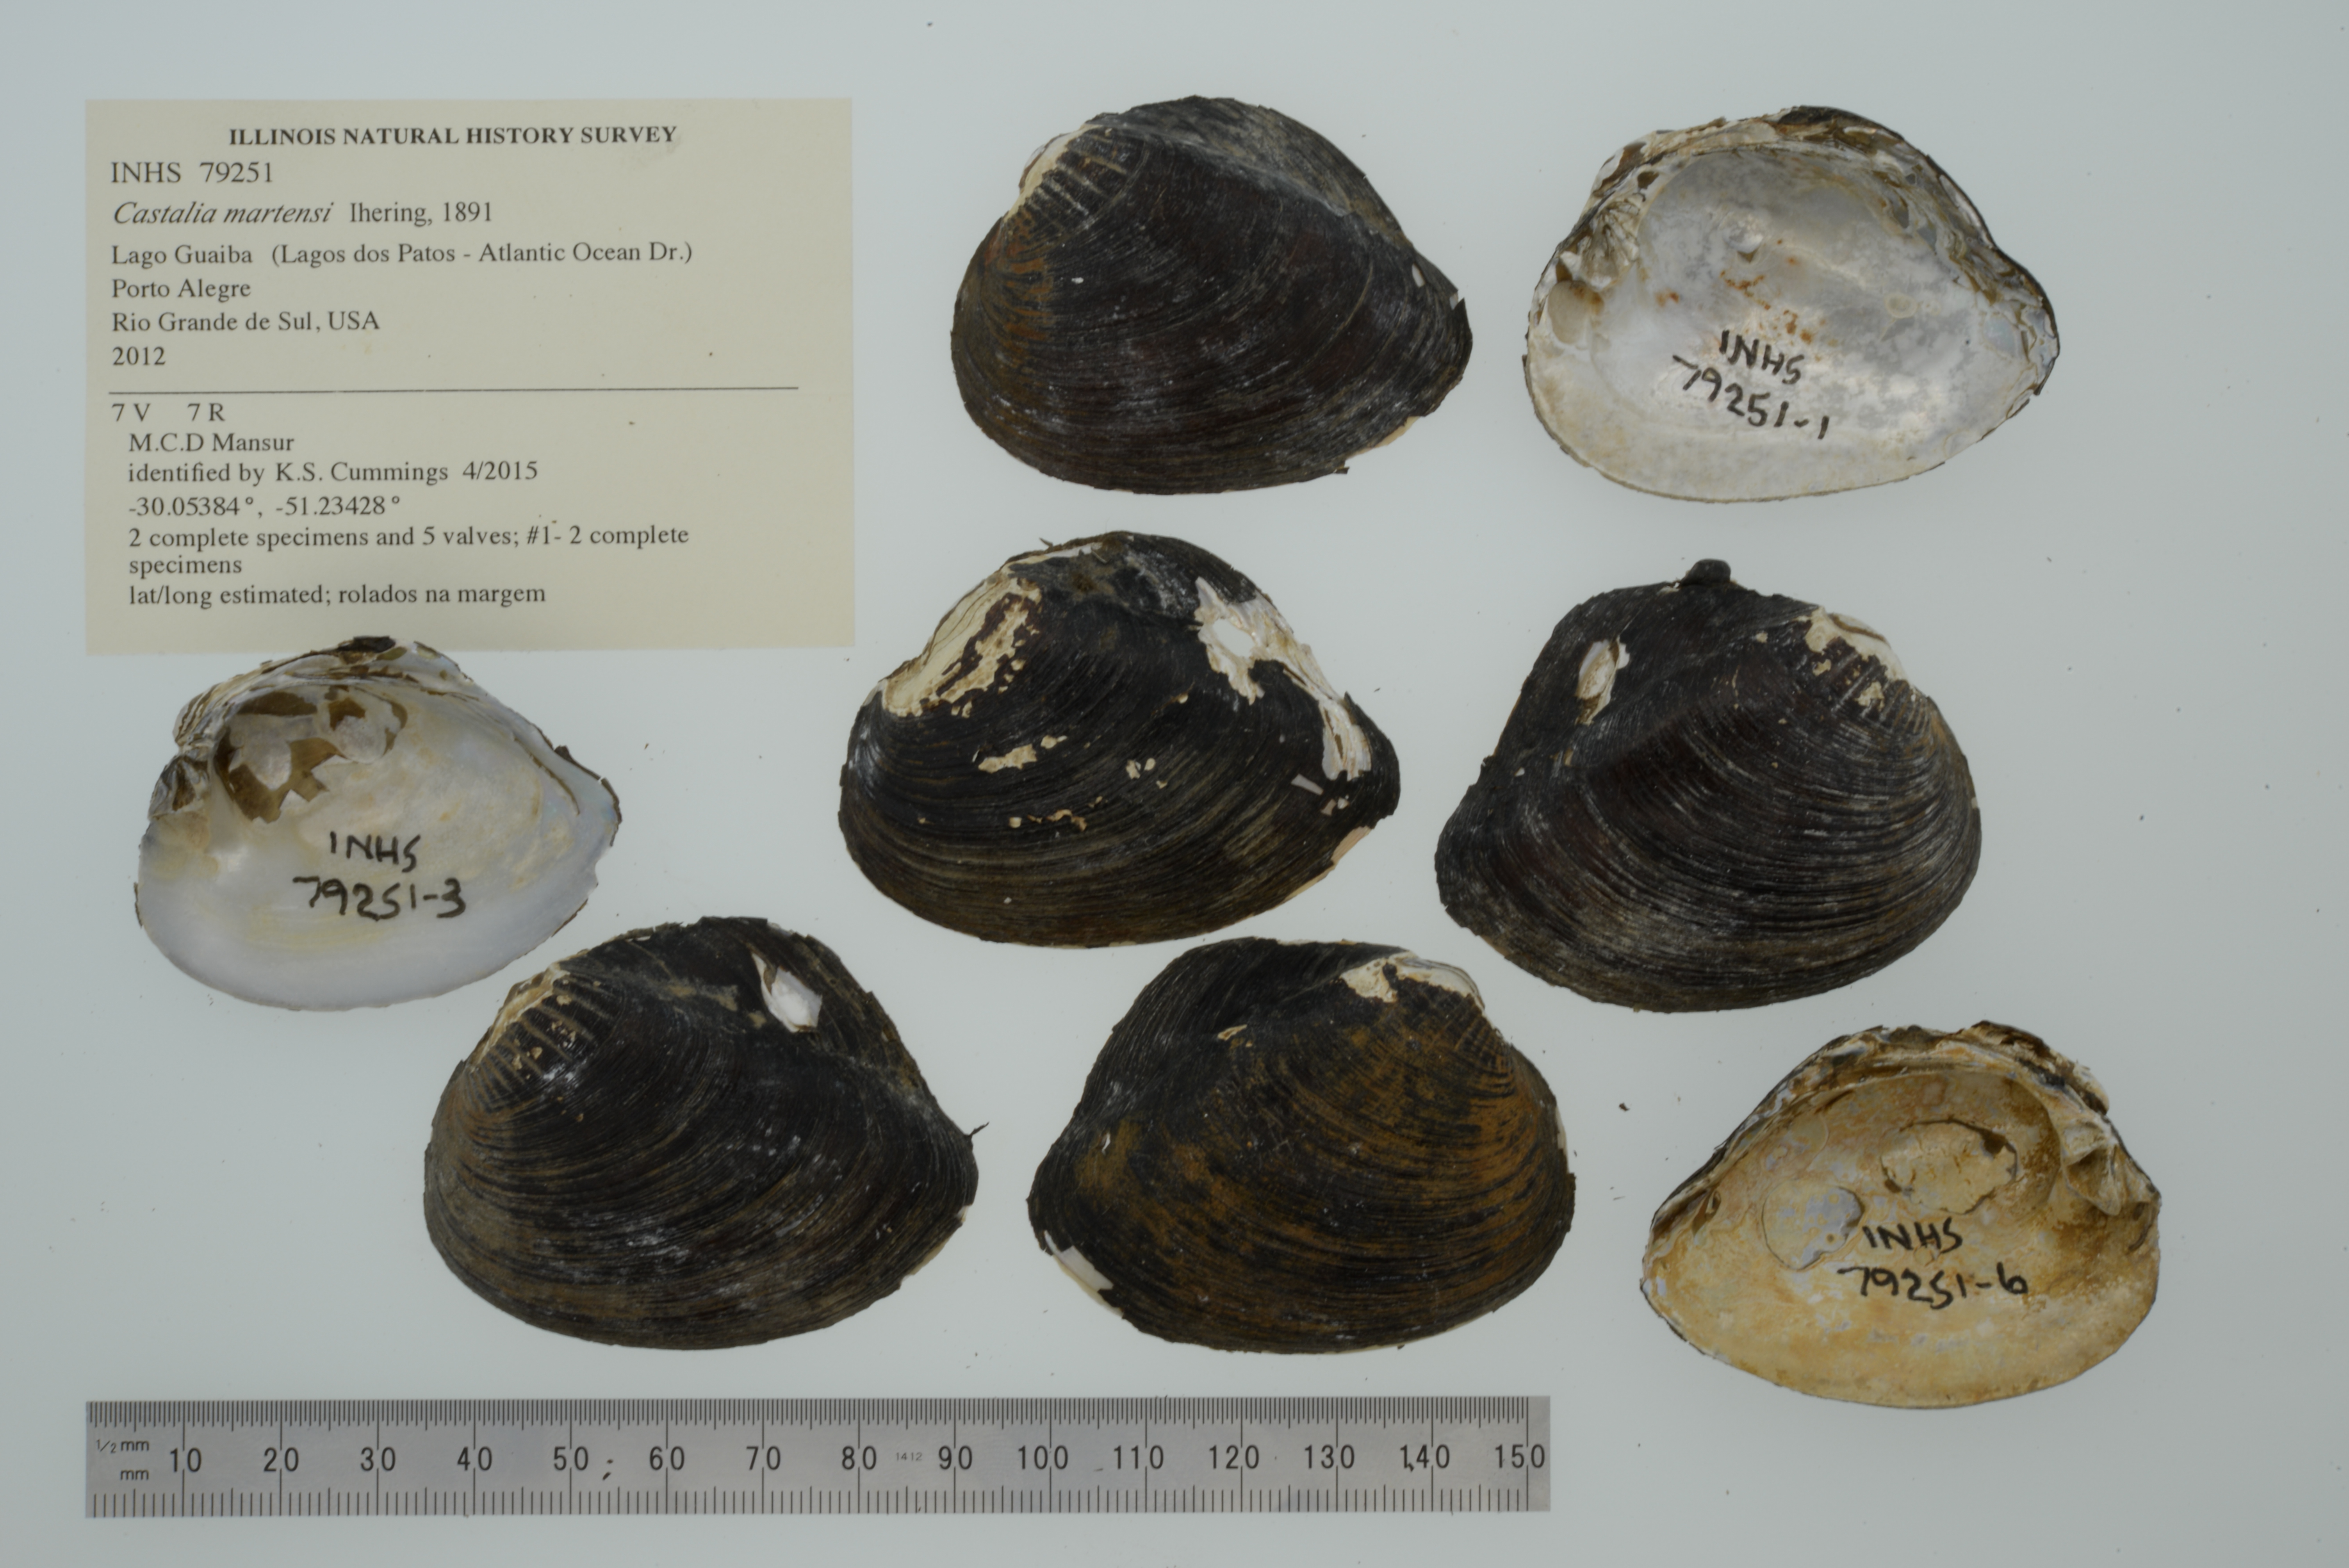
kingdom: Animalia
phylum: Mollusca
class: Bivalvia
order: Unionida
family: Hyriidae
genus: Castalia
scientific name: Castalia martensi
